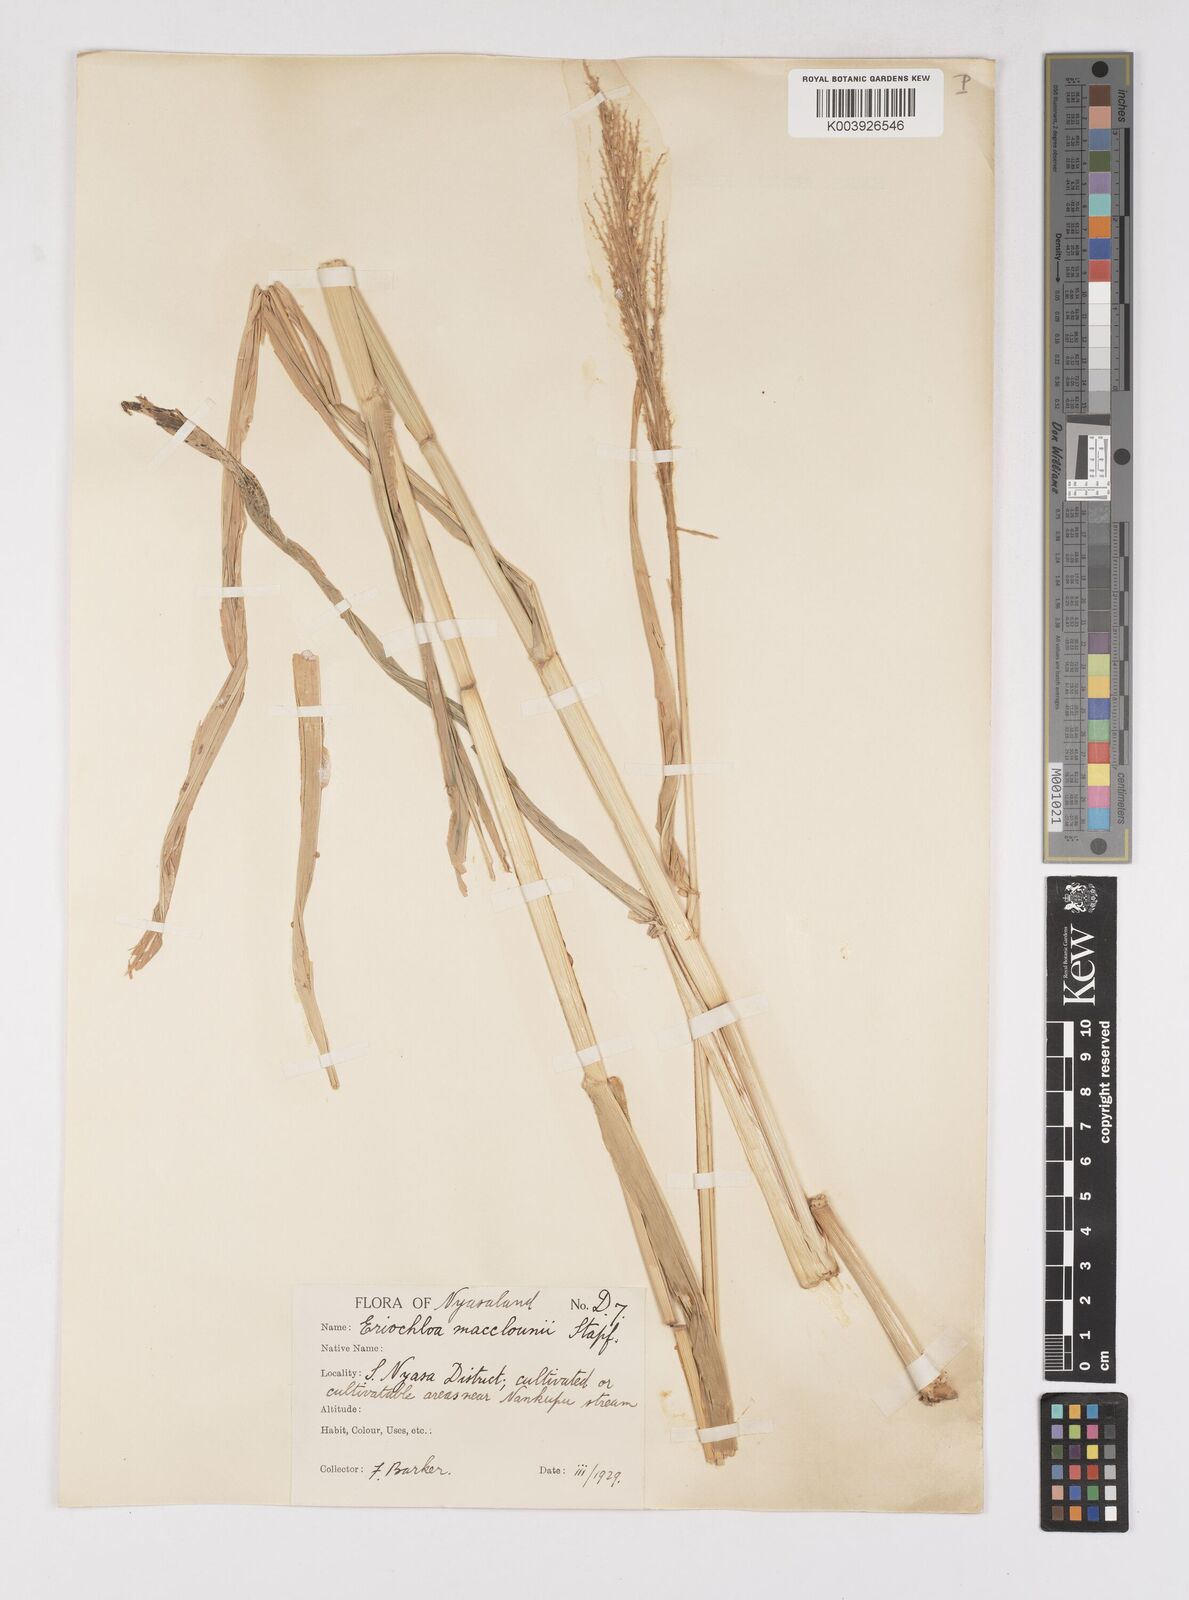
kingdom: Plantae
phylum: Tracheophyta
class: Liliopsida
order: Poales
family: Poaceae
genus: Eriochloa
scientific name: Eriochloa macclounii
